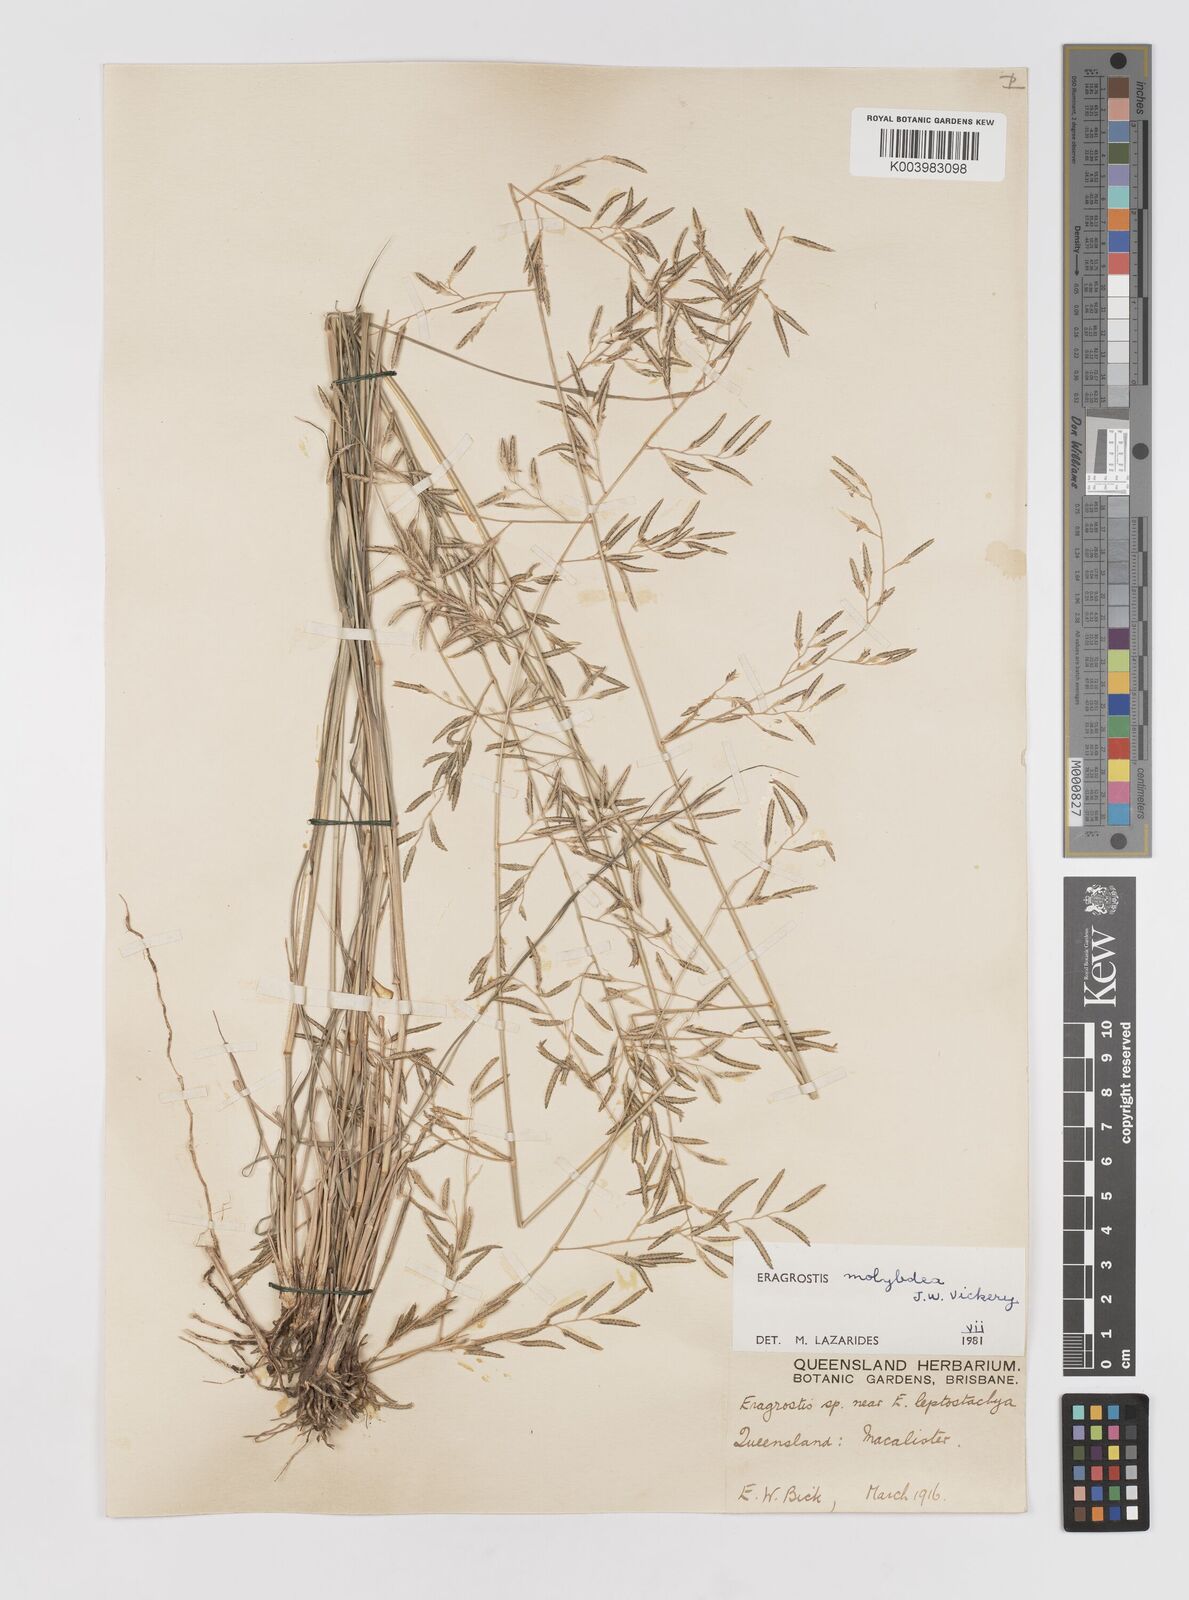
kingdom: Plantae
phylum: Tracheophyta
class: Liliopsida
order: Poales
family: Poaceae
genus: Eragrostis
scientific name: Eragrostis leptostachya
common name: Australian lovegrass
